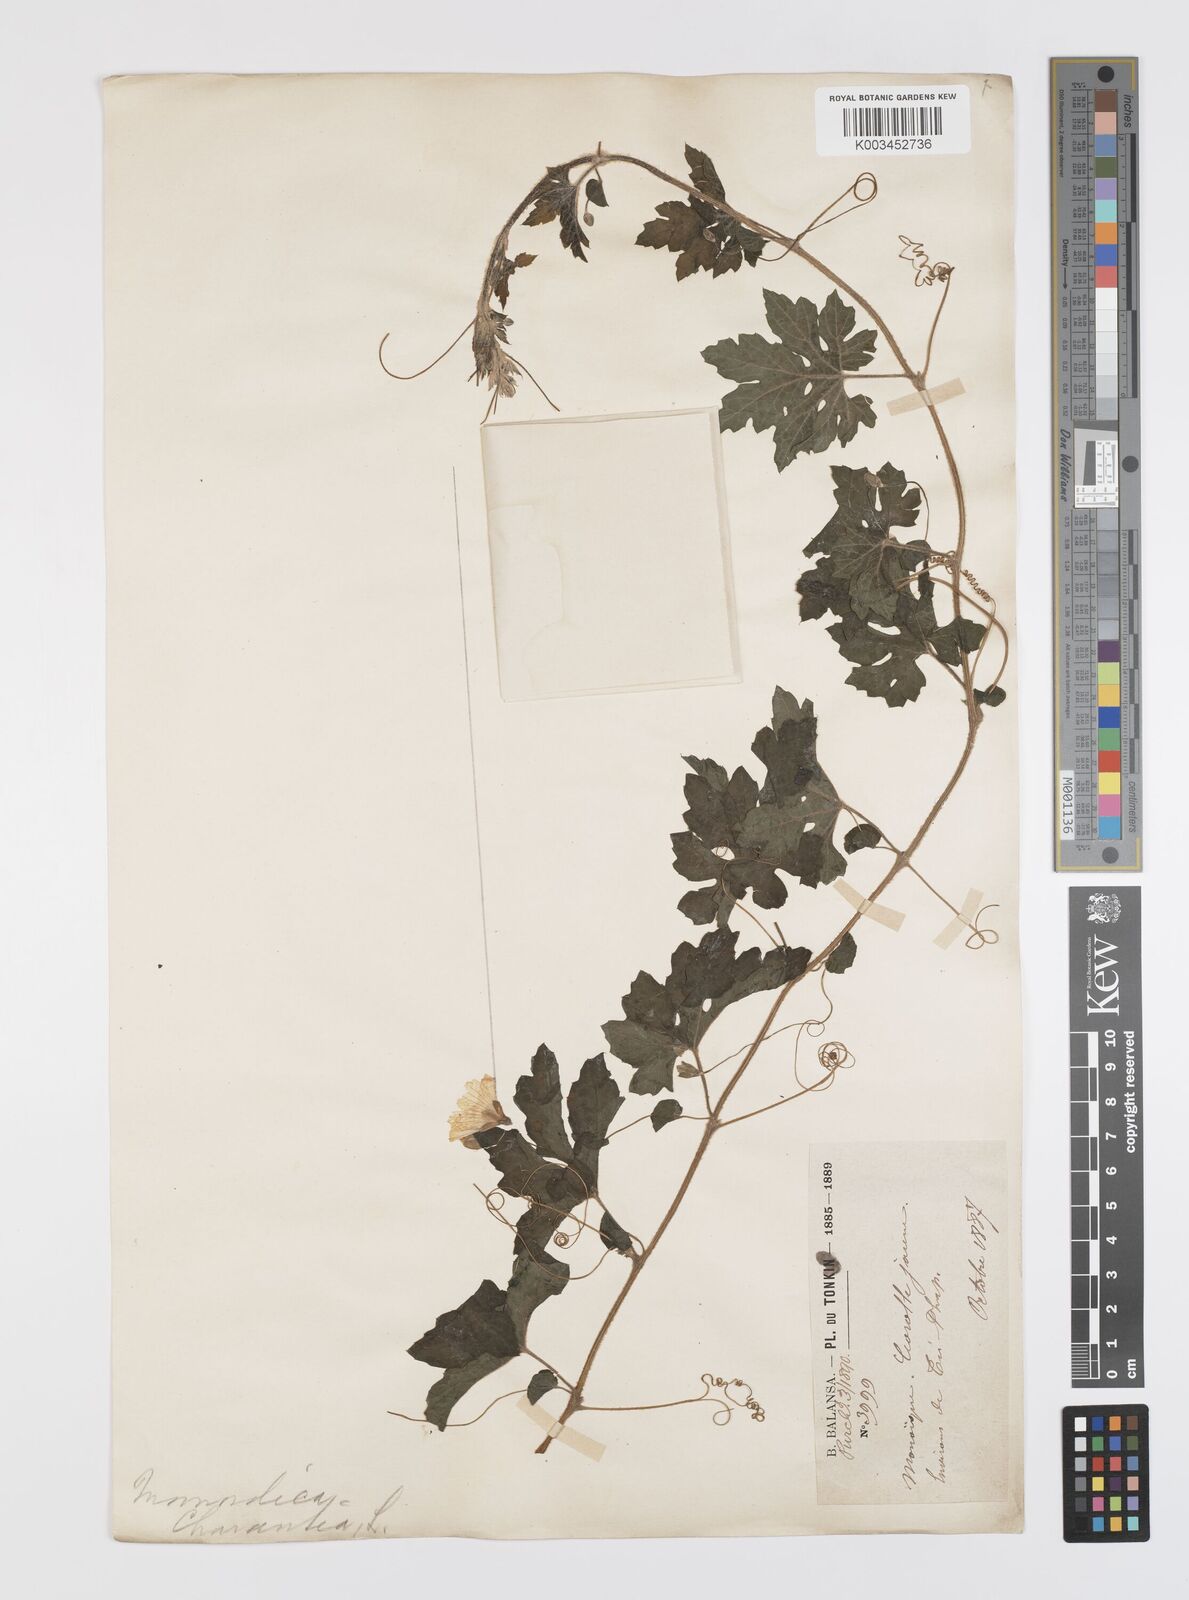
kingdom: Plantae
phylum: Tracheophyta
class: Magnoliopsida
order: Cucurbitales
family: Cucurbitaceae
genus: Momordica
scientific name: Momordica charantia
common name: Balsampear
